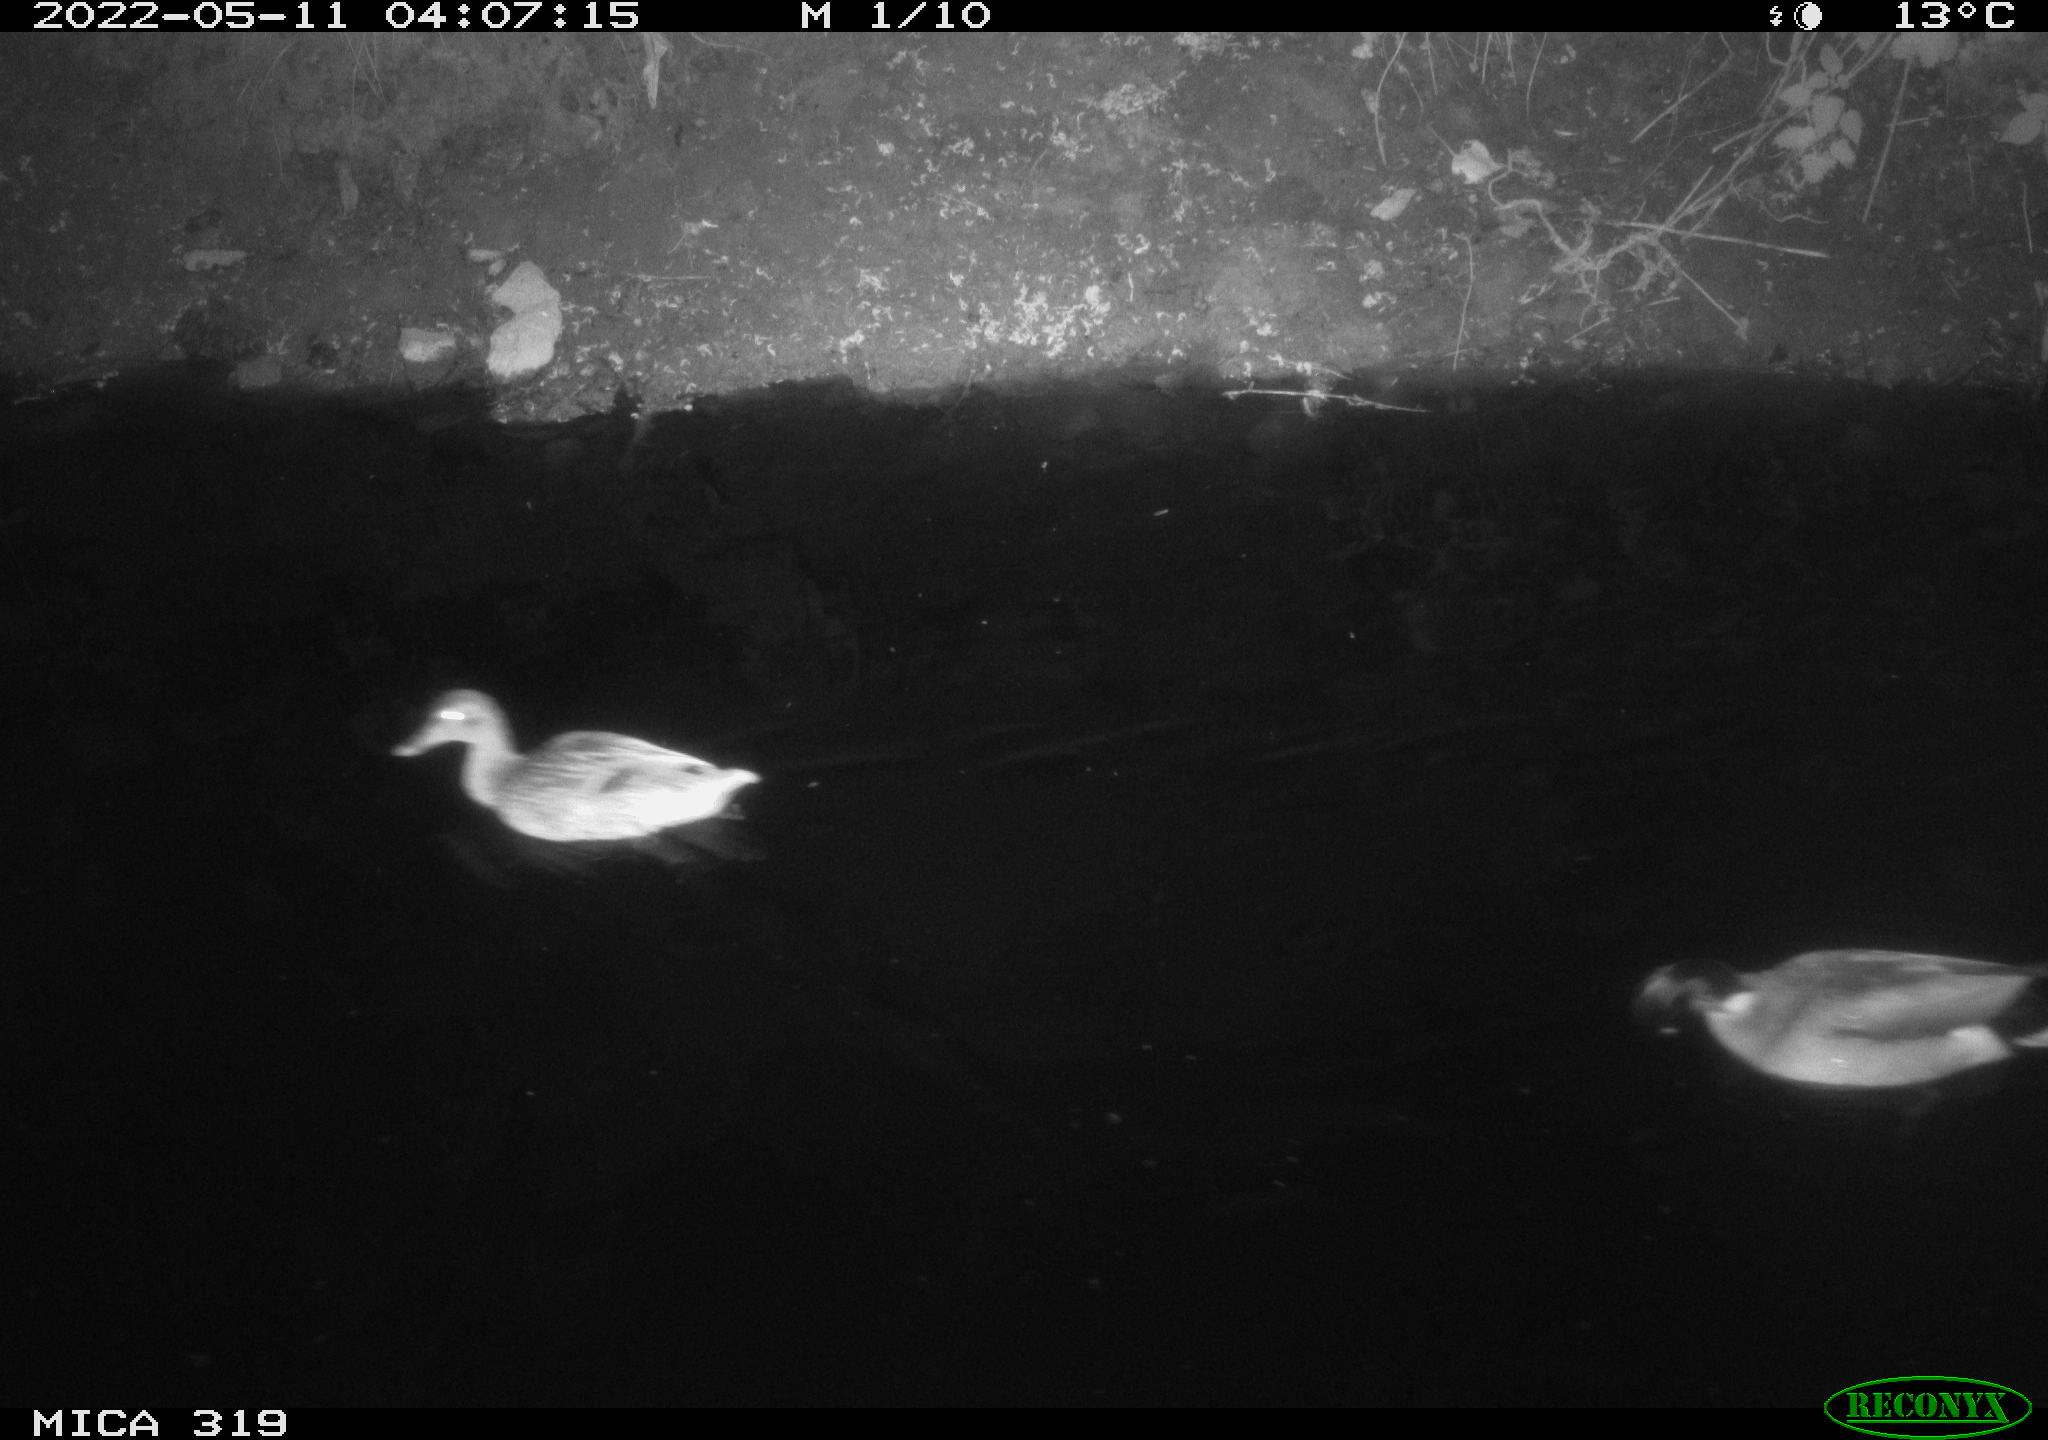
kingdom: Animalia
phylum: Chordata
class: Aves
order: Anseriformes
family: Anatidae
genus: Anas
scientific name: Anas
